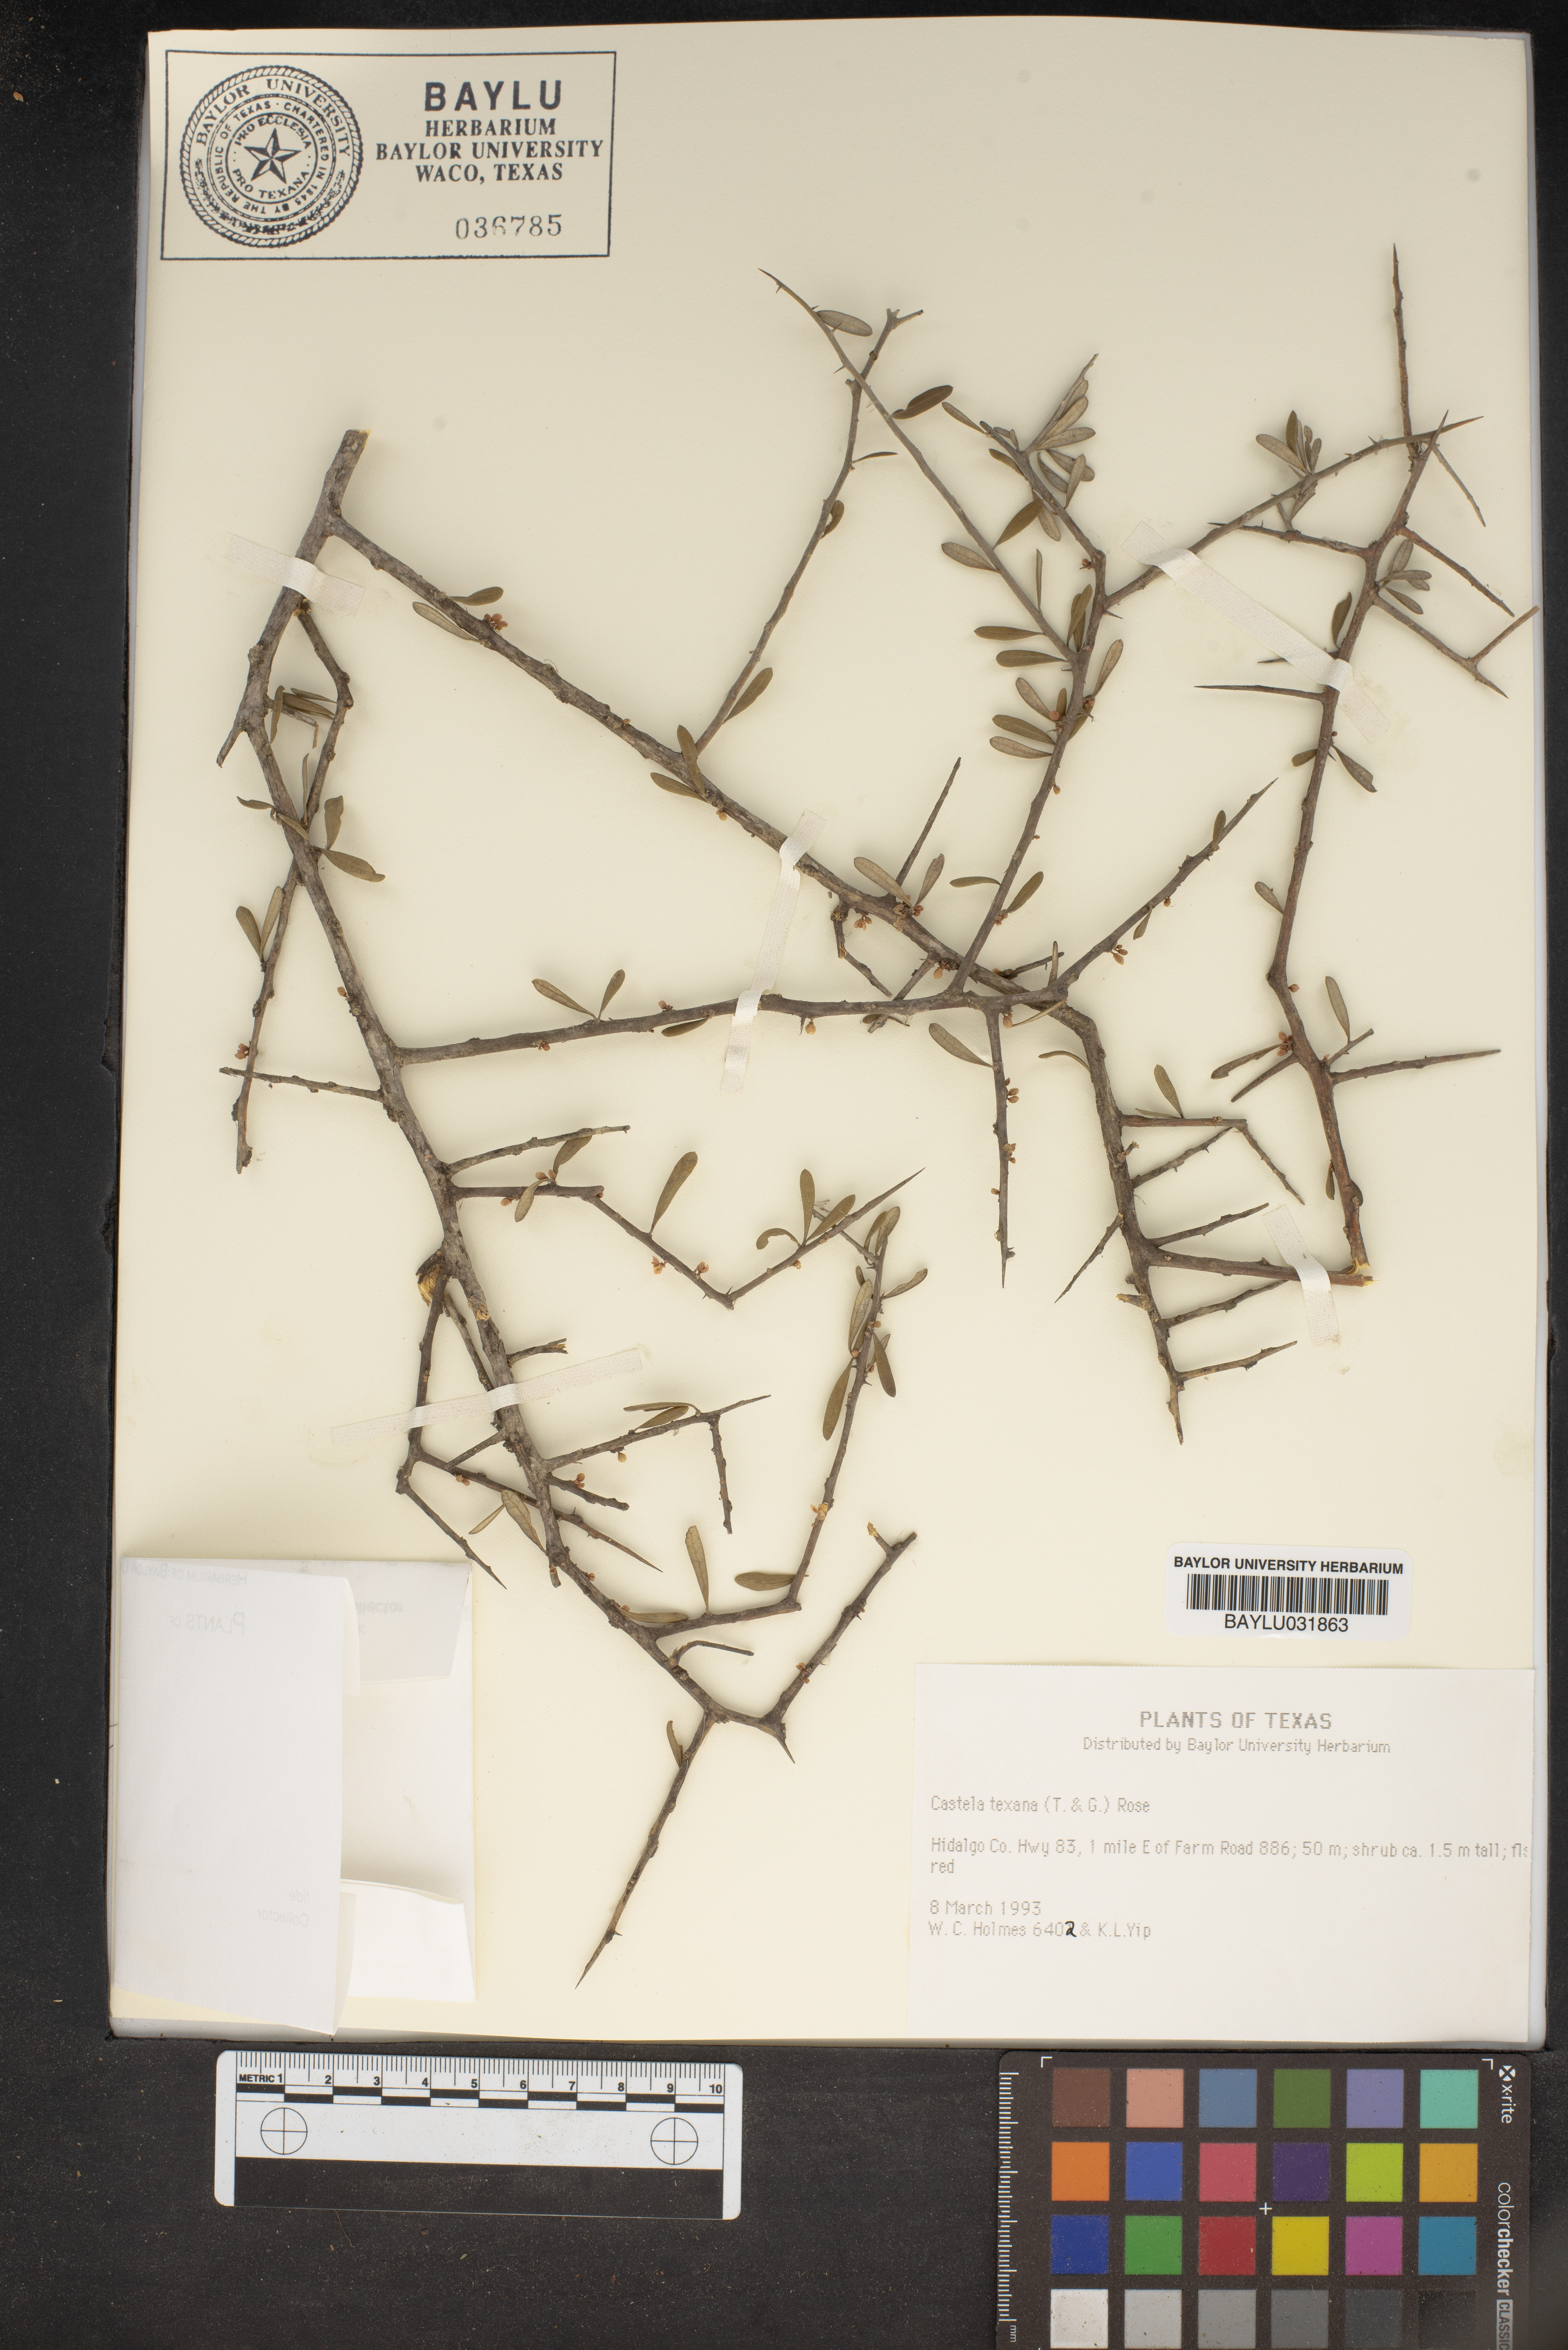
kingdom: Plantae
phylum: Tracheophyta
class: Magnoliopsida
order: Sapindales
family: Simaroubaceae
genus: Castela
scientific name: Castela tortuosa
